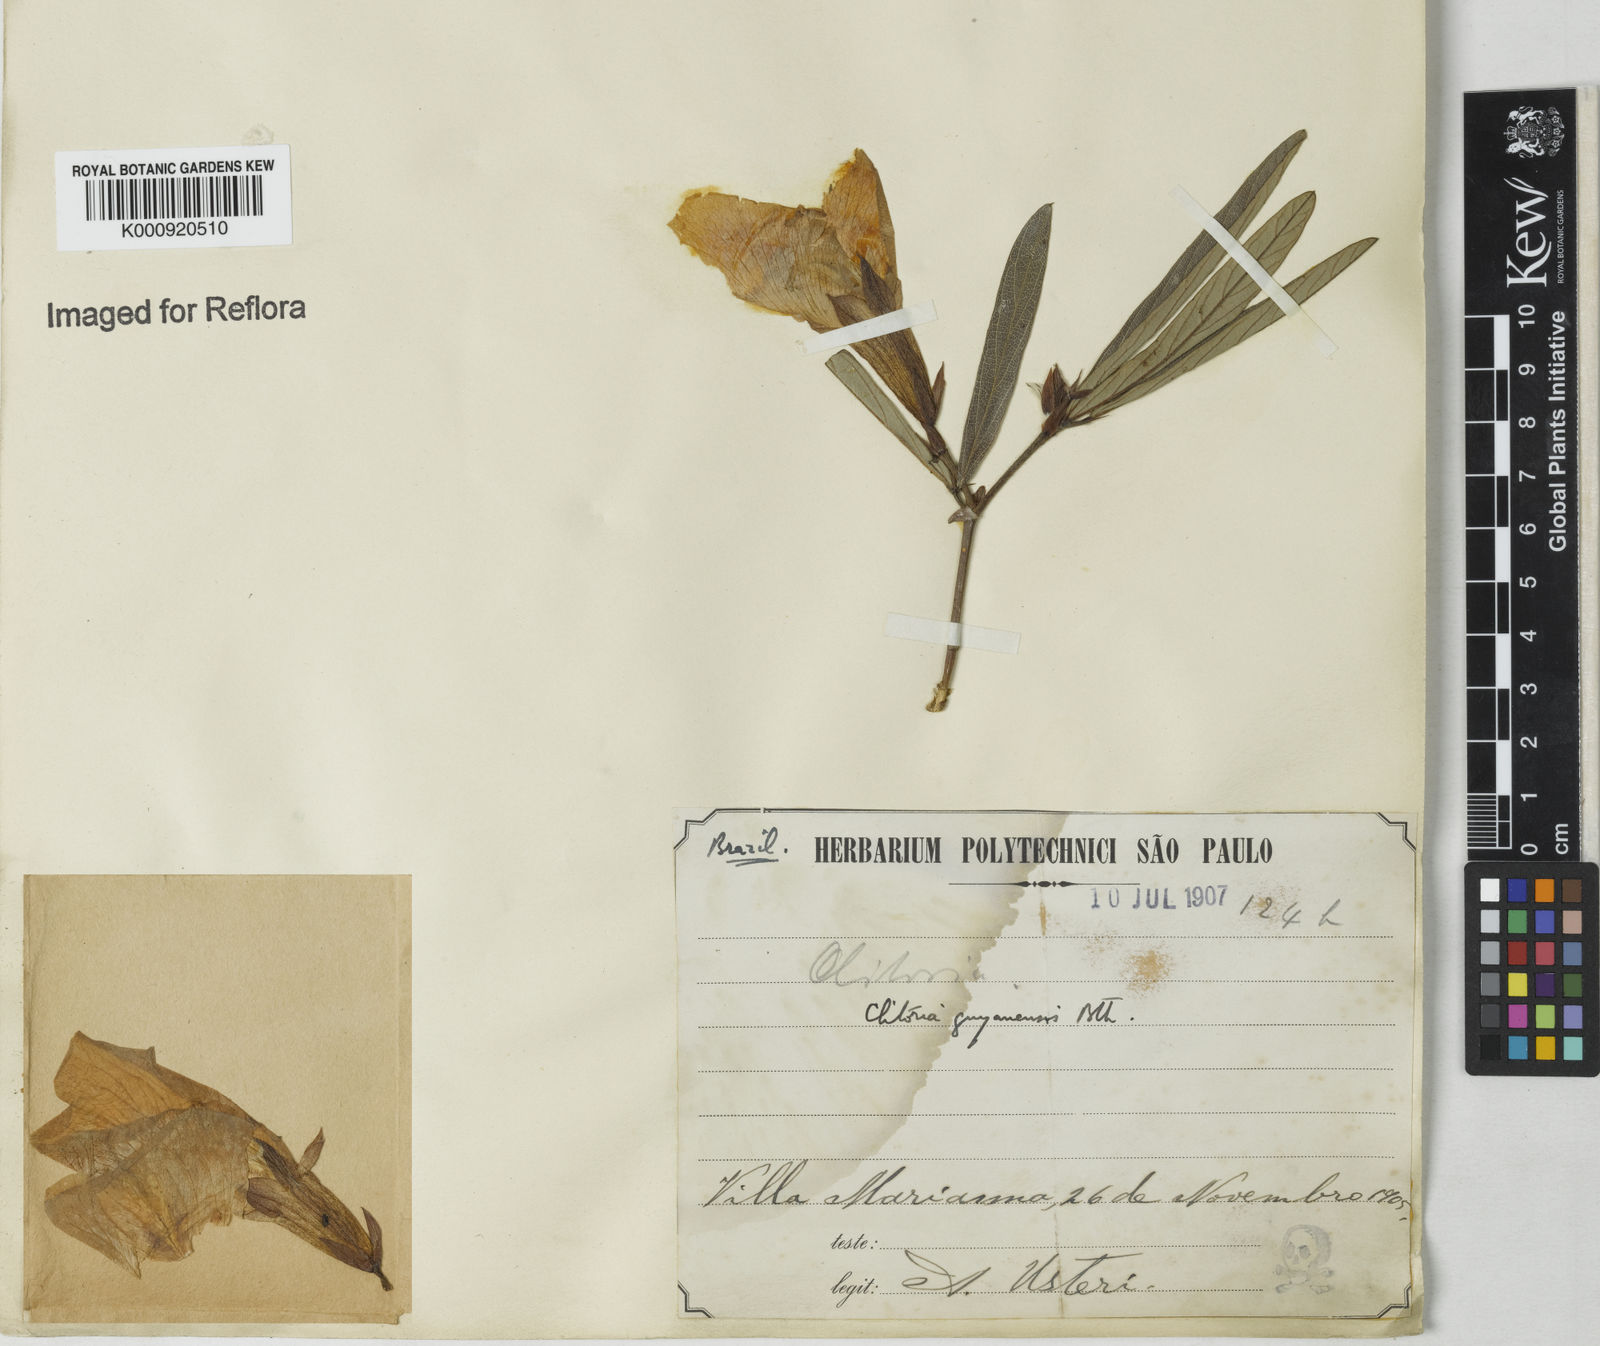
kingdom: Plantae
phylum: Tracheophyta
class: Magnoliopsida
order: Fabales
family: Fabaceae
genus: Clitoria
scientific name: Clitoria guianensis
